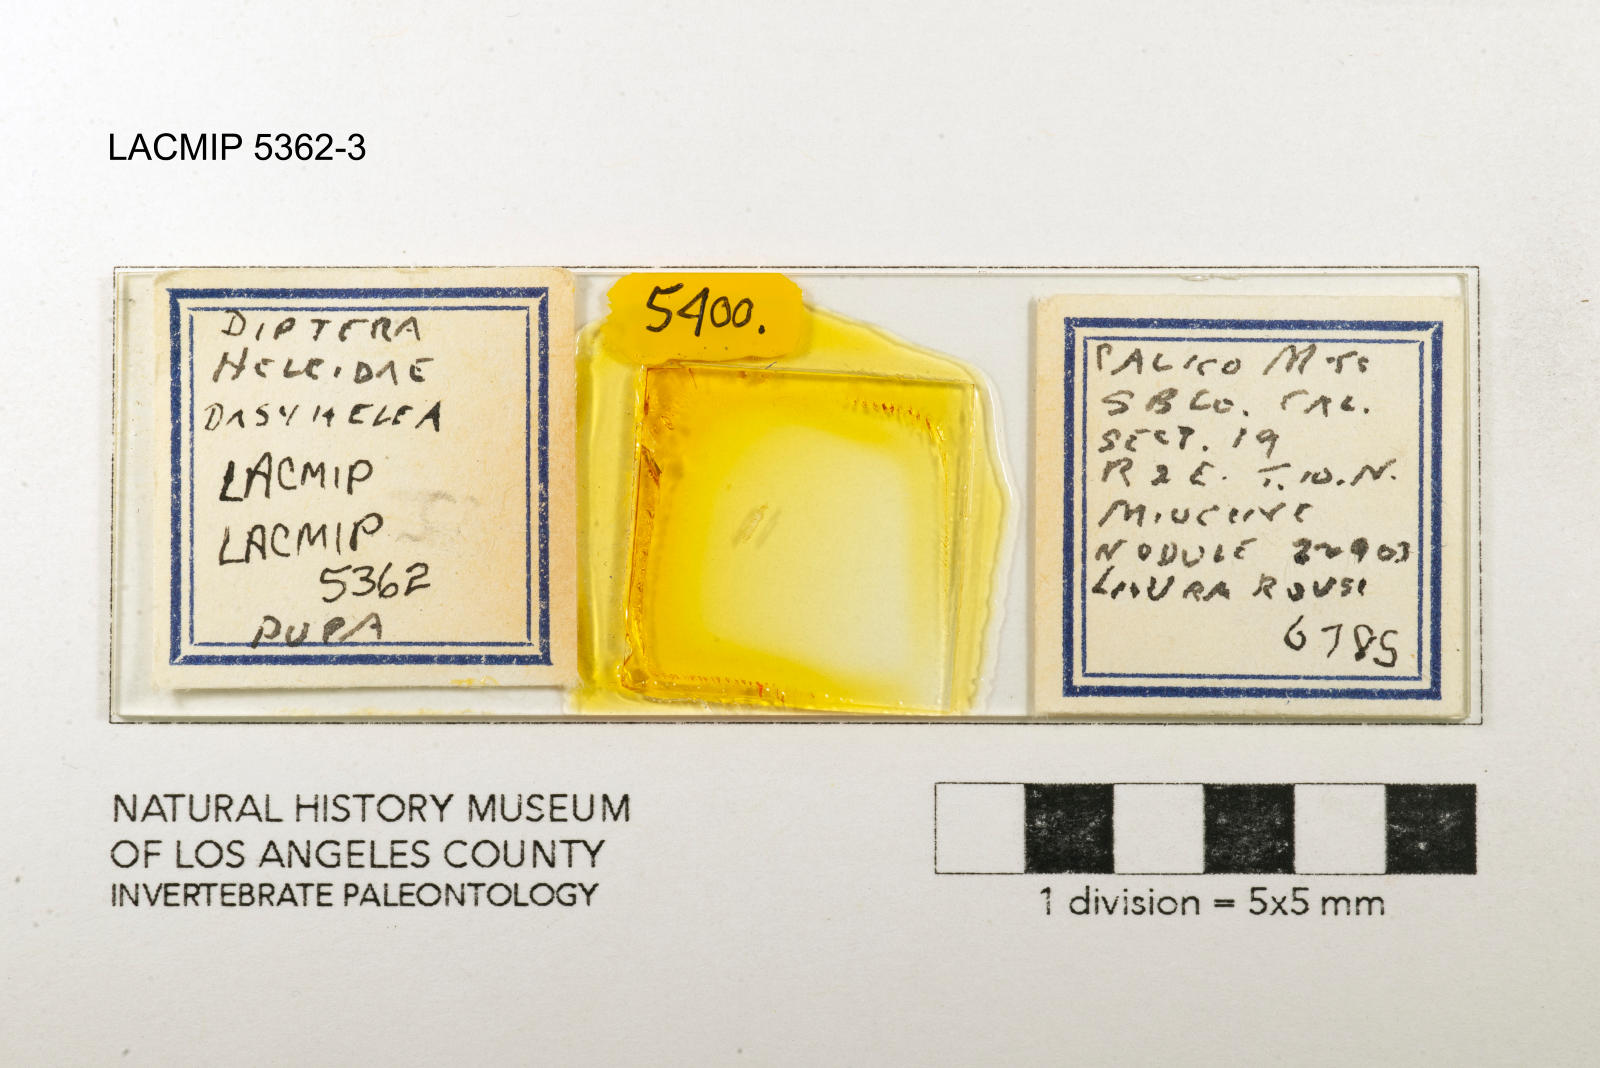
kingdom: Animalia
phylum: Arthropoda
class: Insecta
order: Diptera
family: Ceratopogonidae
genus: Dasyhelea
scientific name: Dasyhelea kanakoffi
